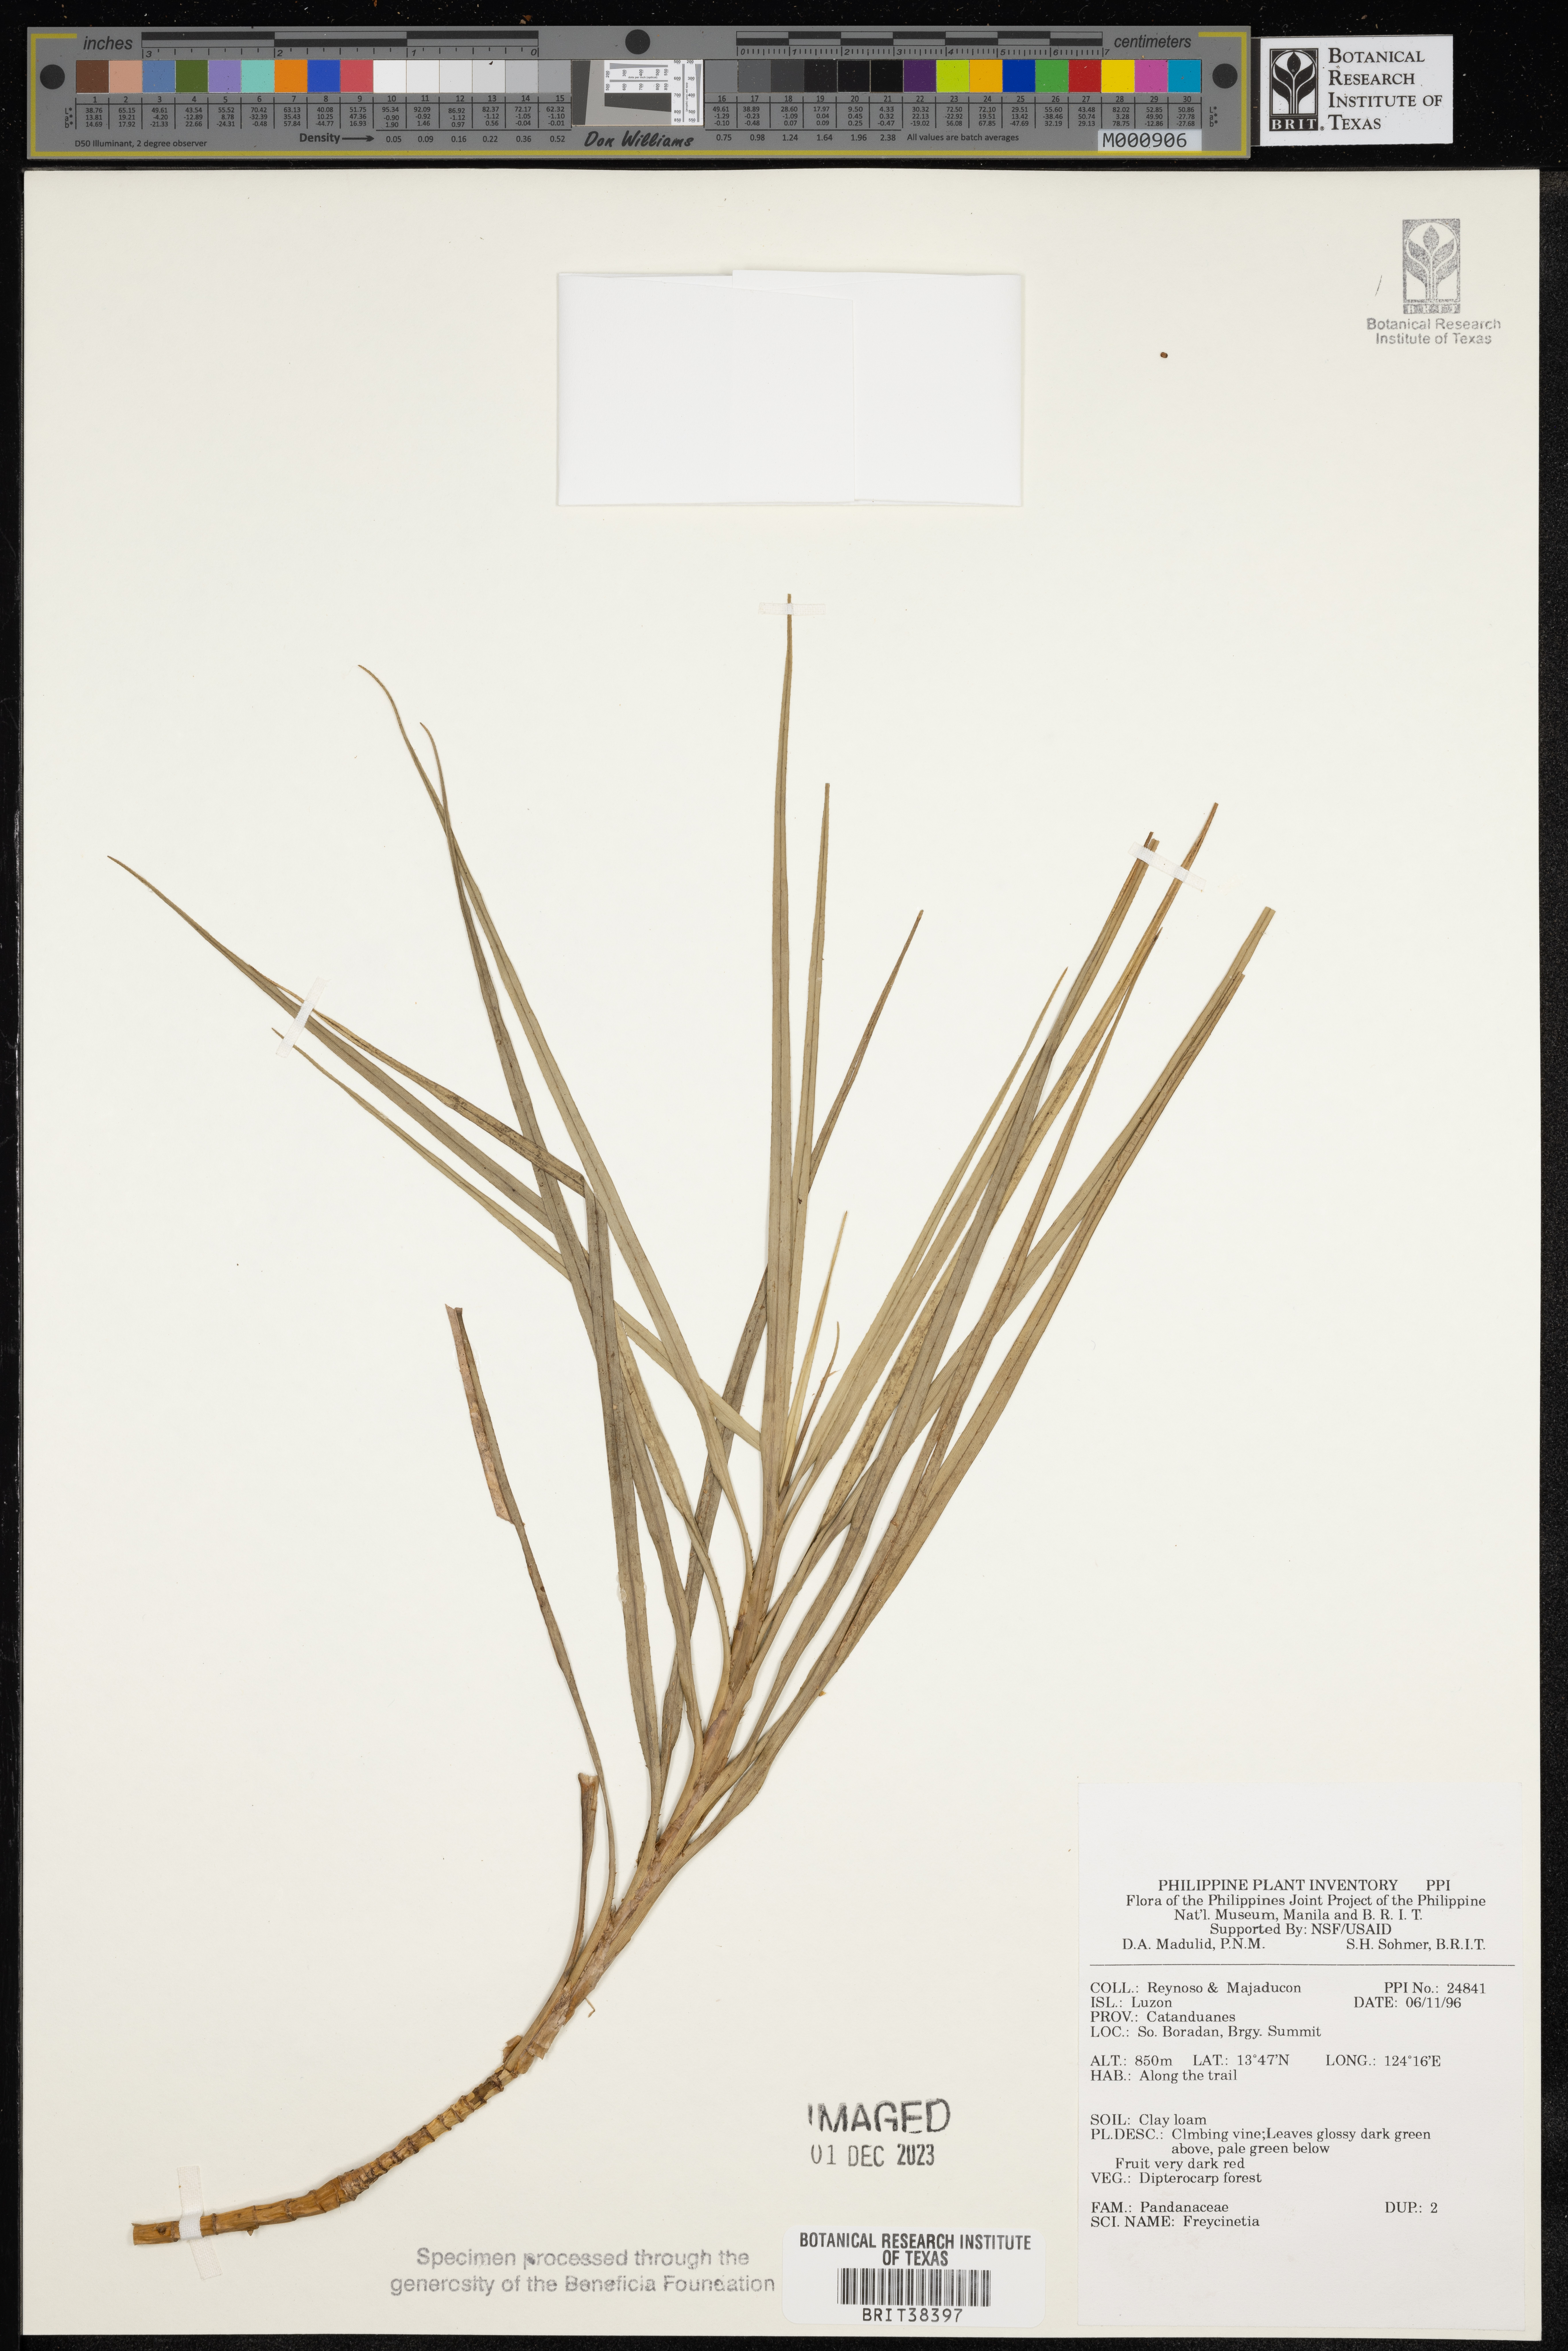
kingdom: Plantae
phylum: Tracheophyta
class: Liliopsida
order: Pandanales
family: Pandanaceae
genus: Freycinetia
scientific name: Freycinetia
